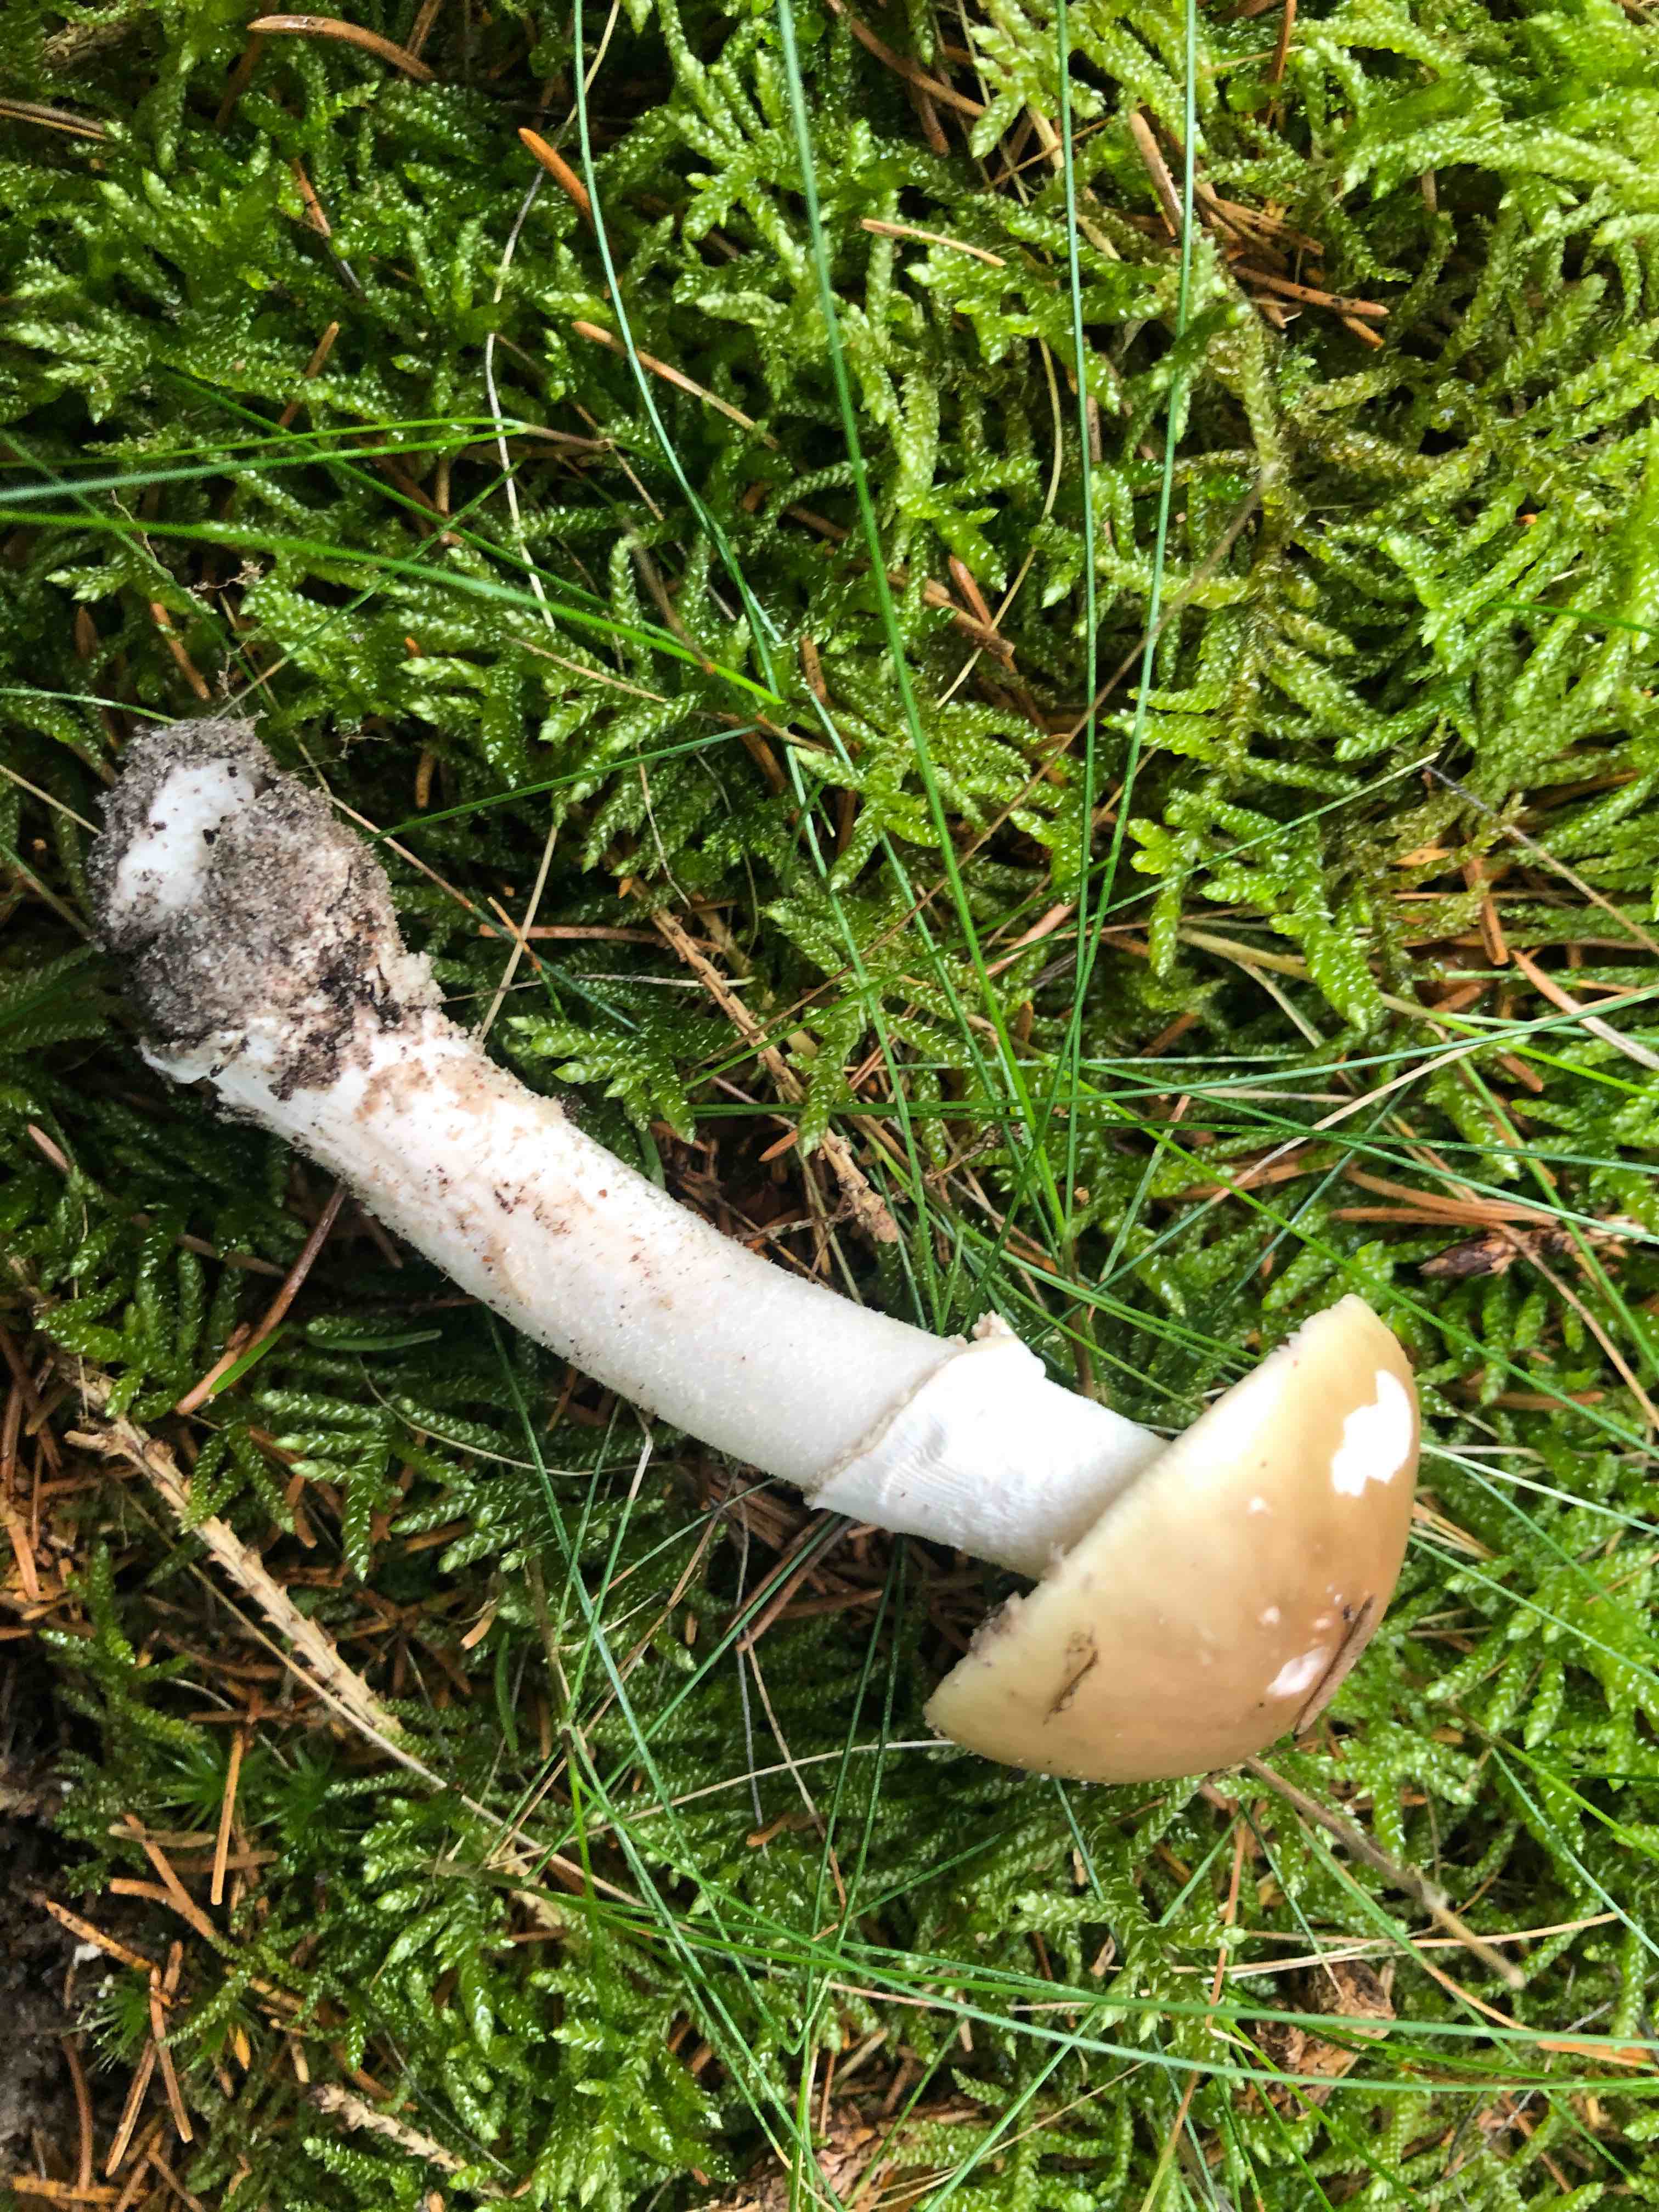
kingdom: Fungi
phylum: Basidiomycota
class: Agaricomycetes
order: Agaricales
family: Amanitaceae
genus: Amanita
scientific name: Amanita
